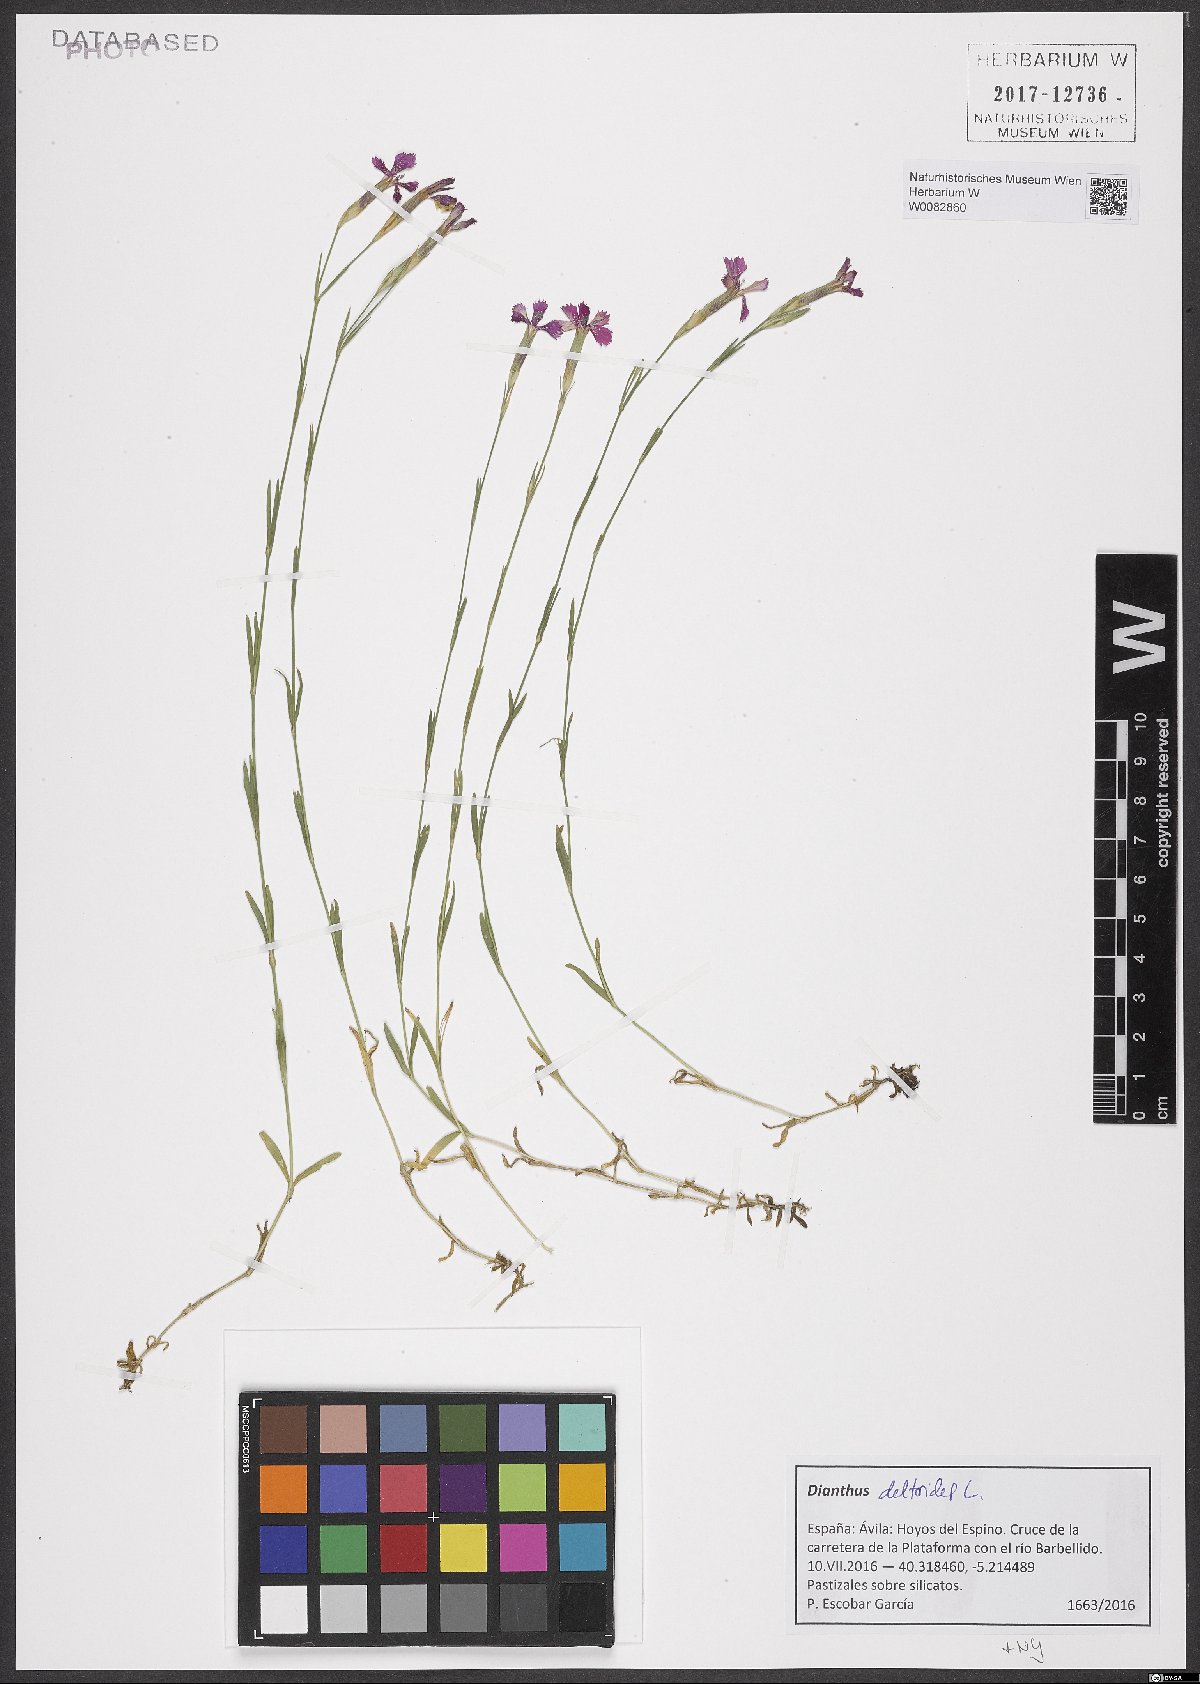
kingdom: Plantae
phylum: Tracheophyta
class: Magnoliopsida
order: Caryophyllales
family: Caryophyllaceae
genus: Dianthus
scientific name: Dianthus deltoides
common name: Maiden pink
